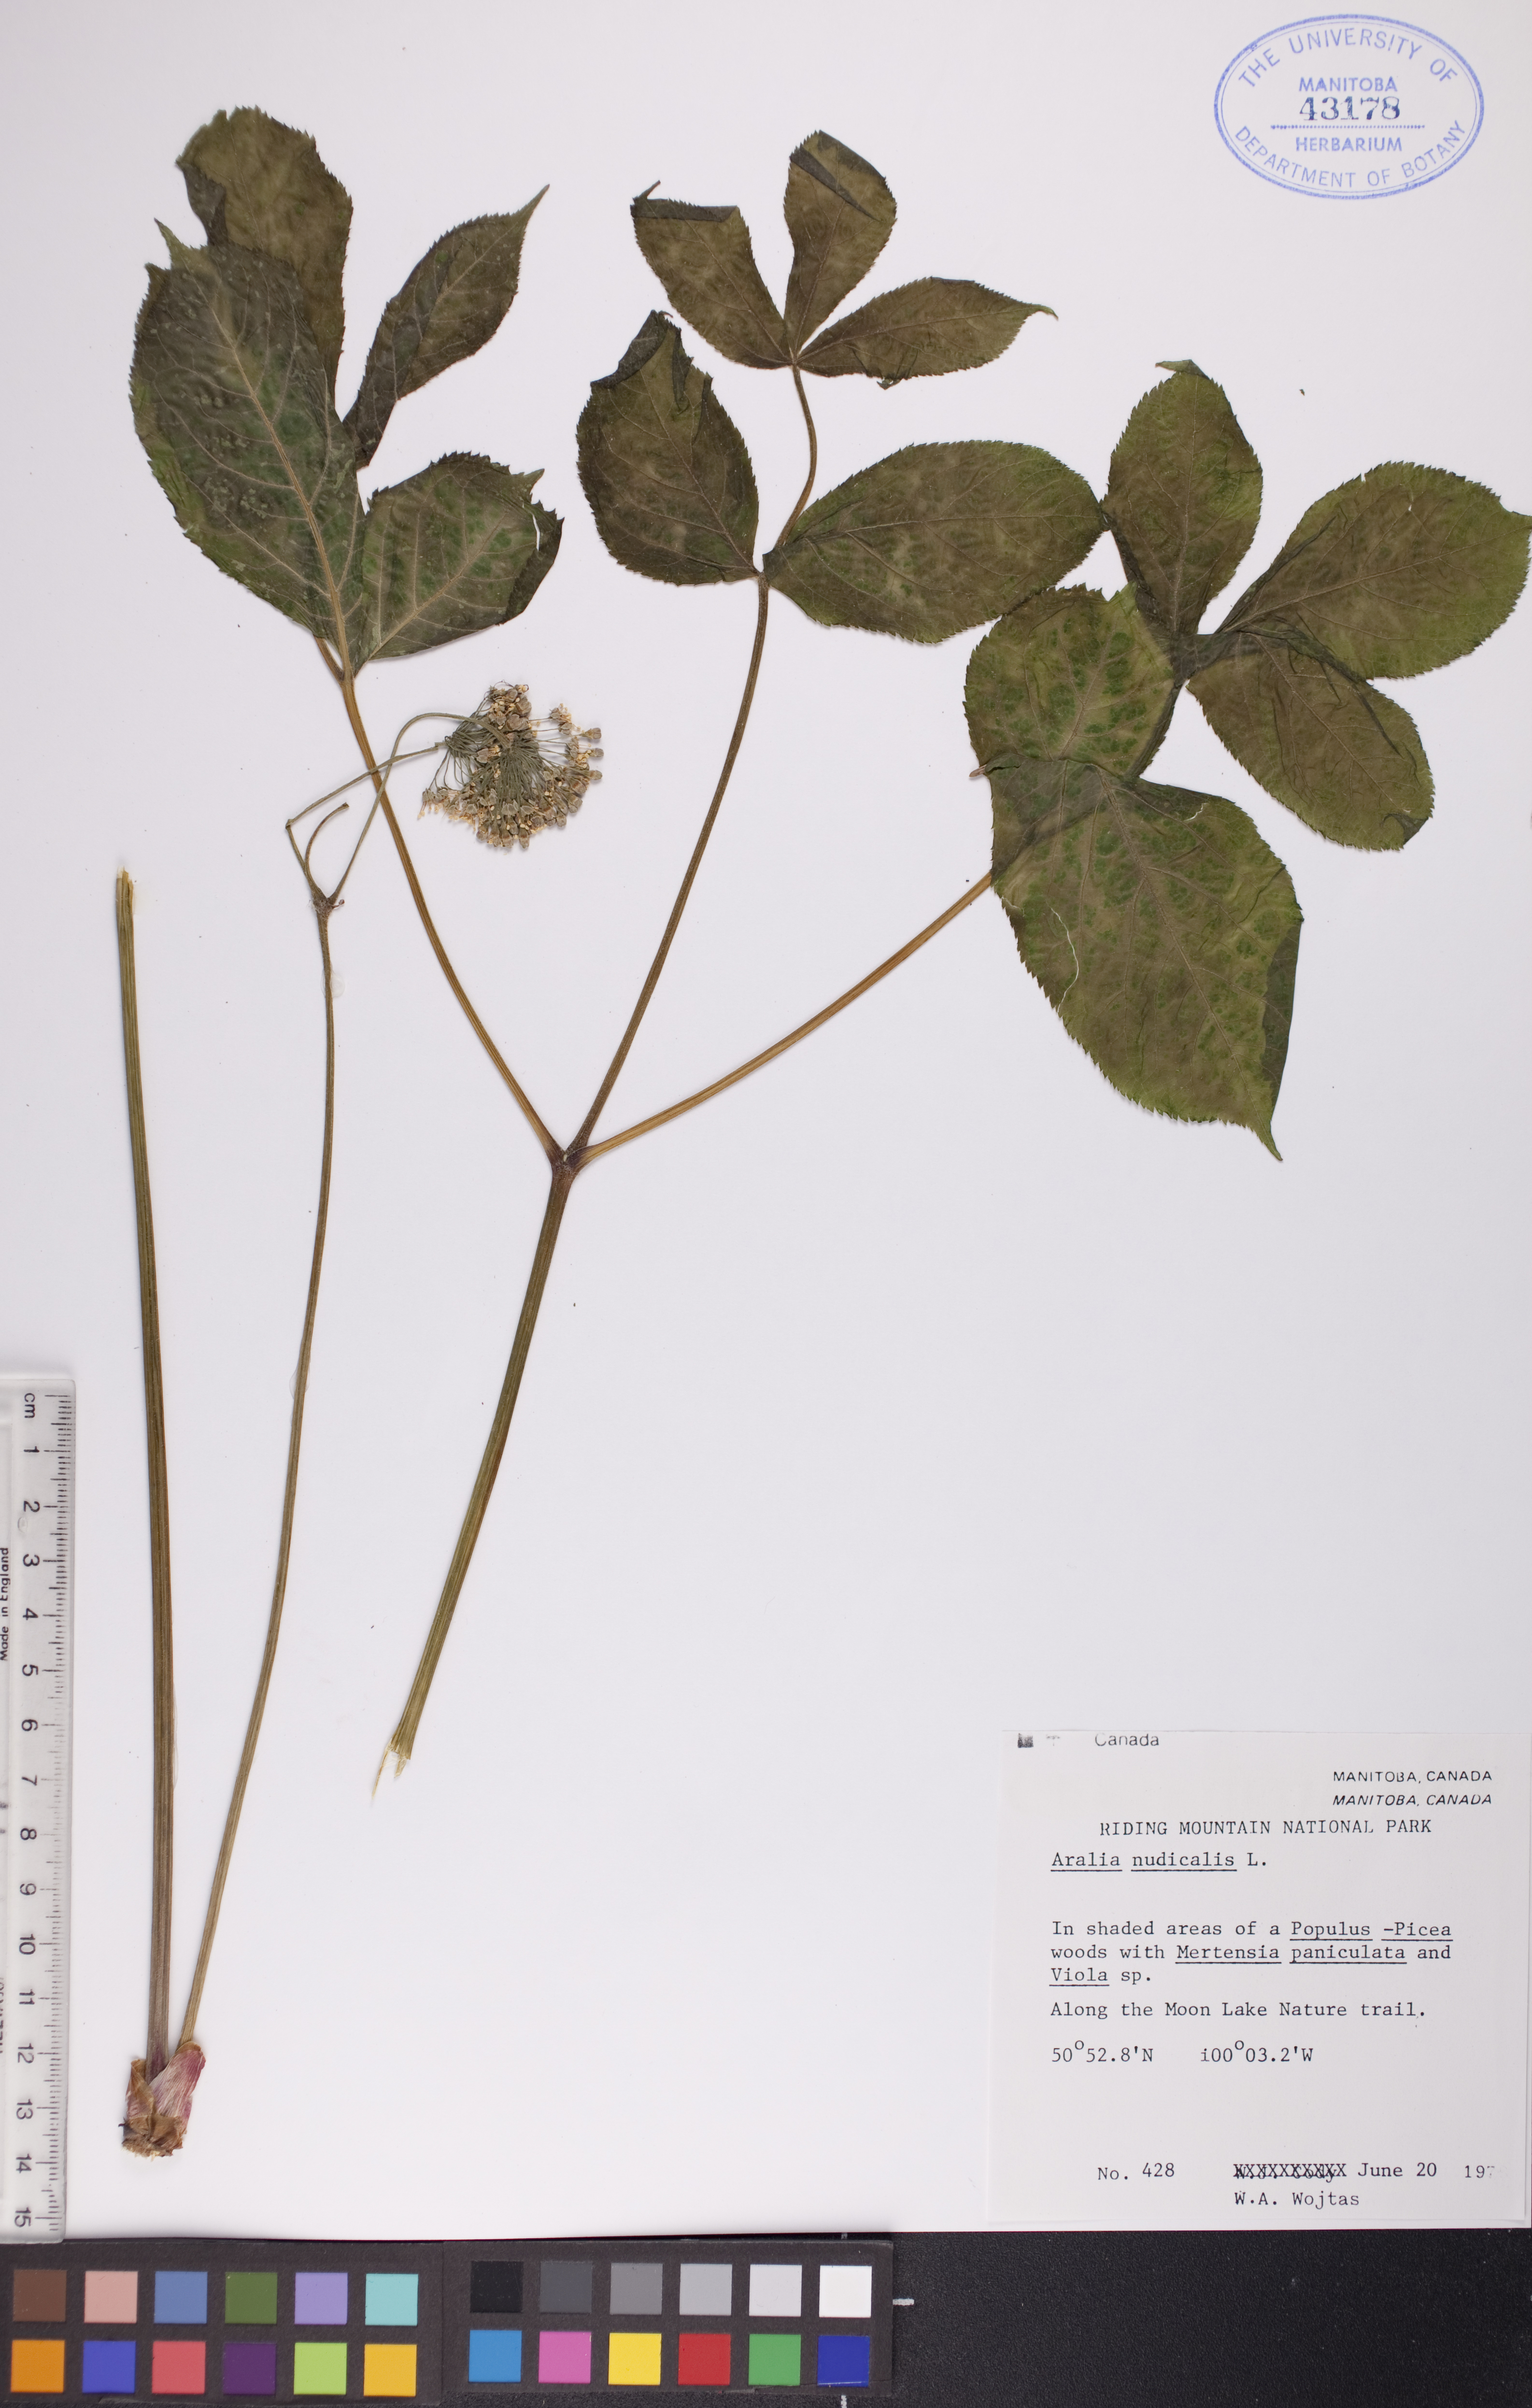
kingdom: Plantae
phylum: Tracheophyta
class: Magnoliopsida
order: Apiales
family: Araliaceae
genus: Aralia
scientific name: Aralia nudicaulis
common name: Wild sarsaparilla
